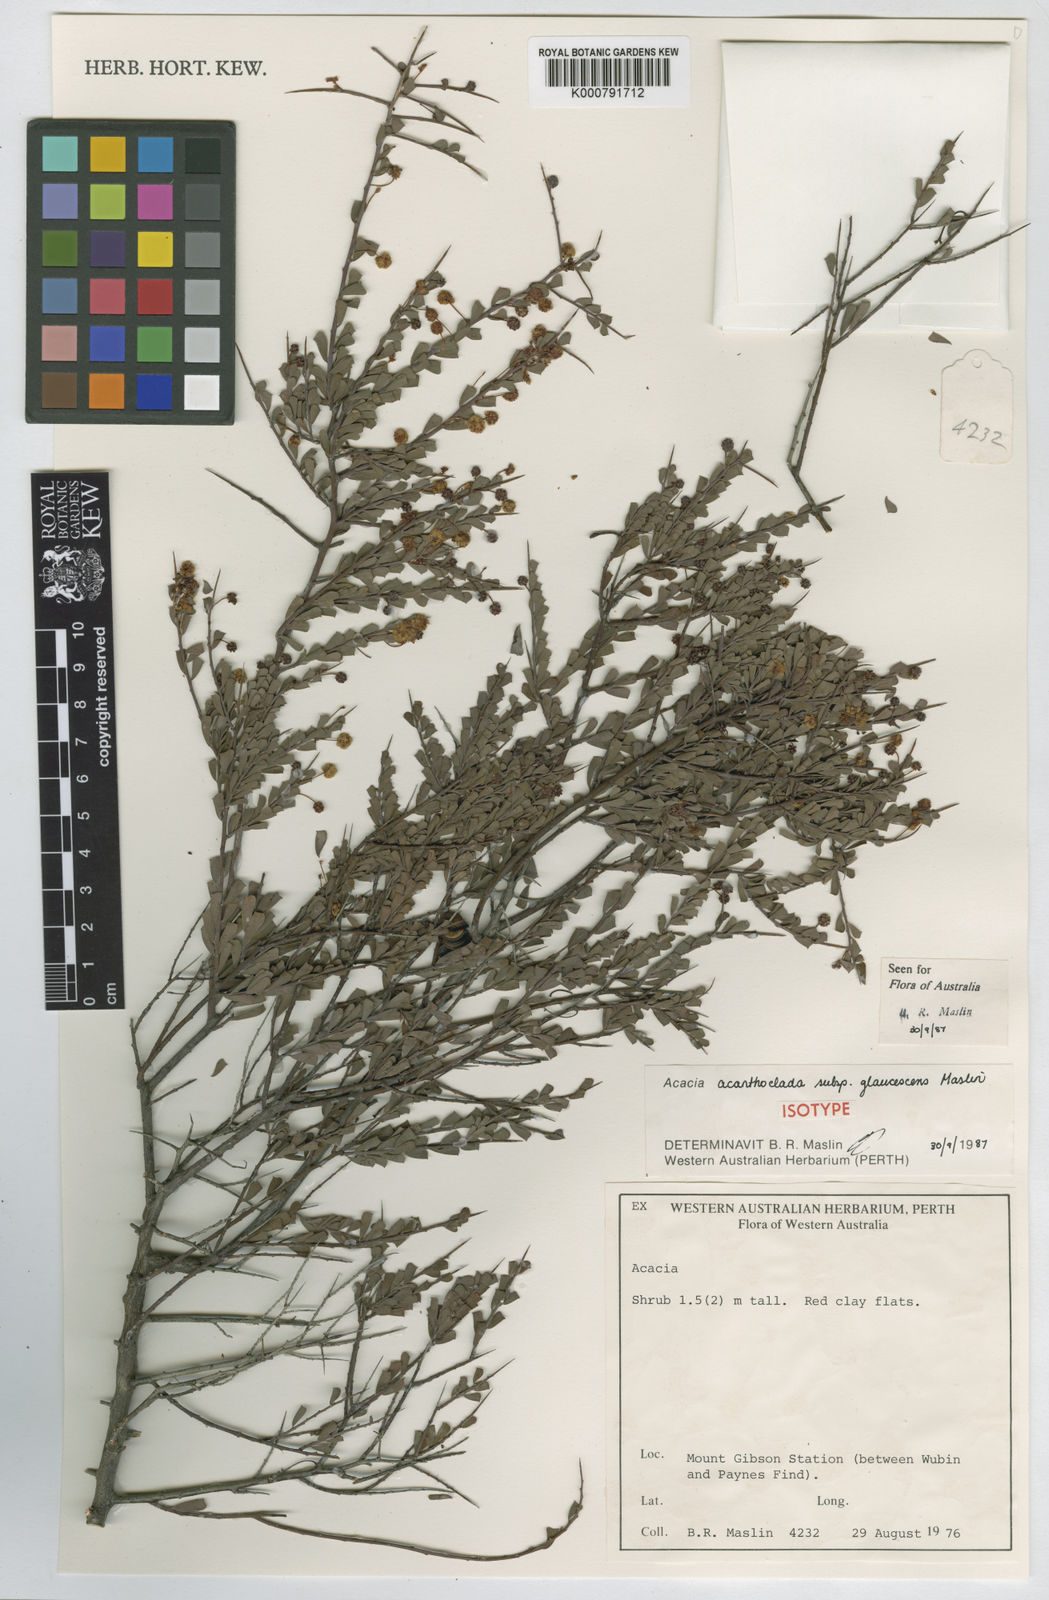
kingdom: Plantae
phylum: Tracheophyta
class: Magnoliopsida
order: Fabales
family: Fabaceae
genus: Acacia
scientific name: Acacia acanthoclada
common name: Harrow wattle
